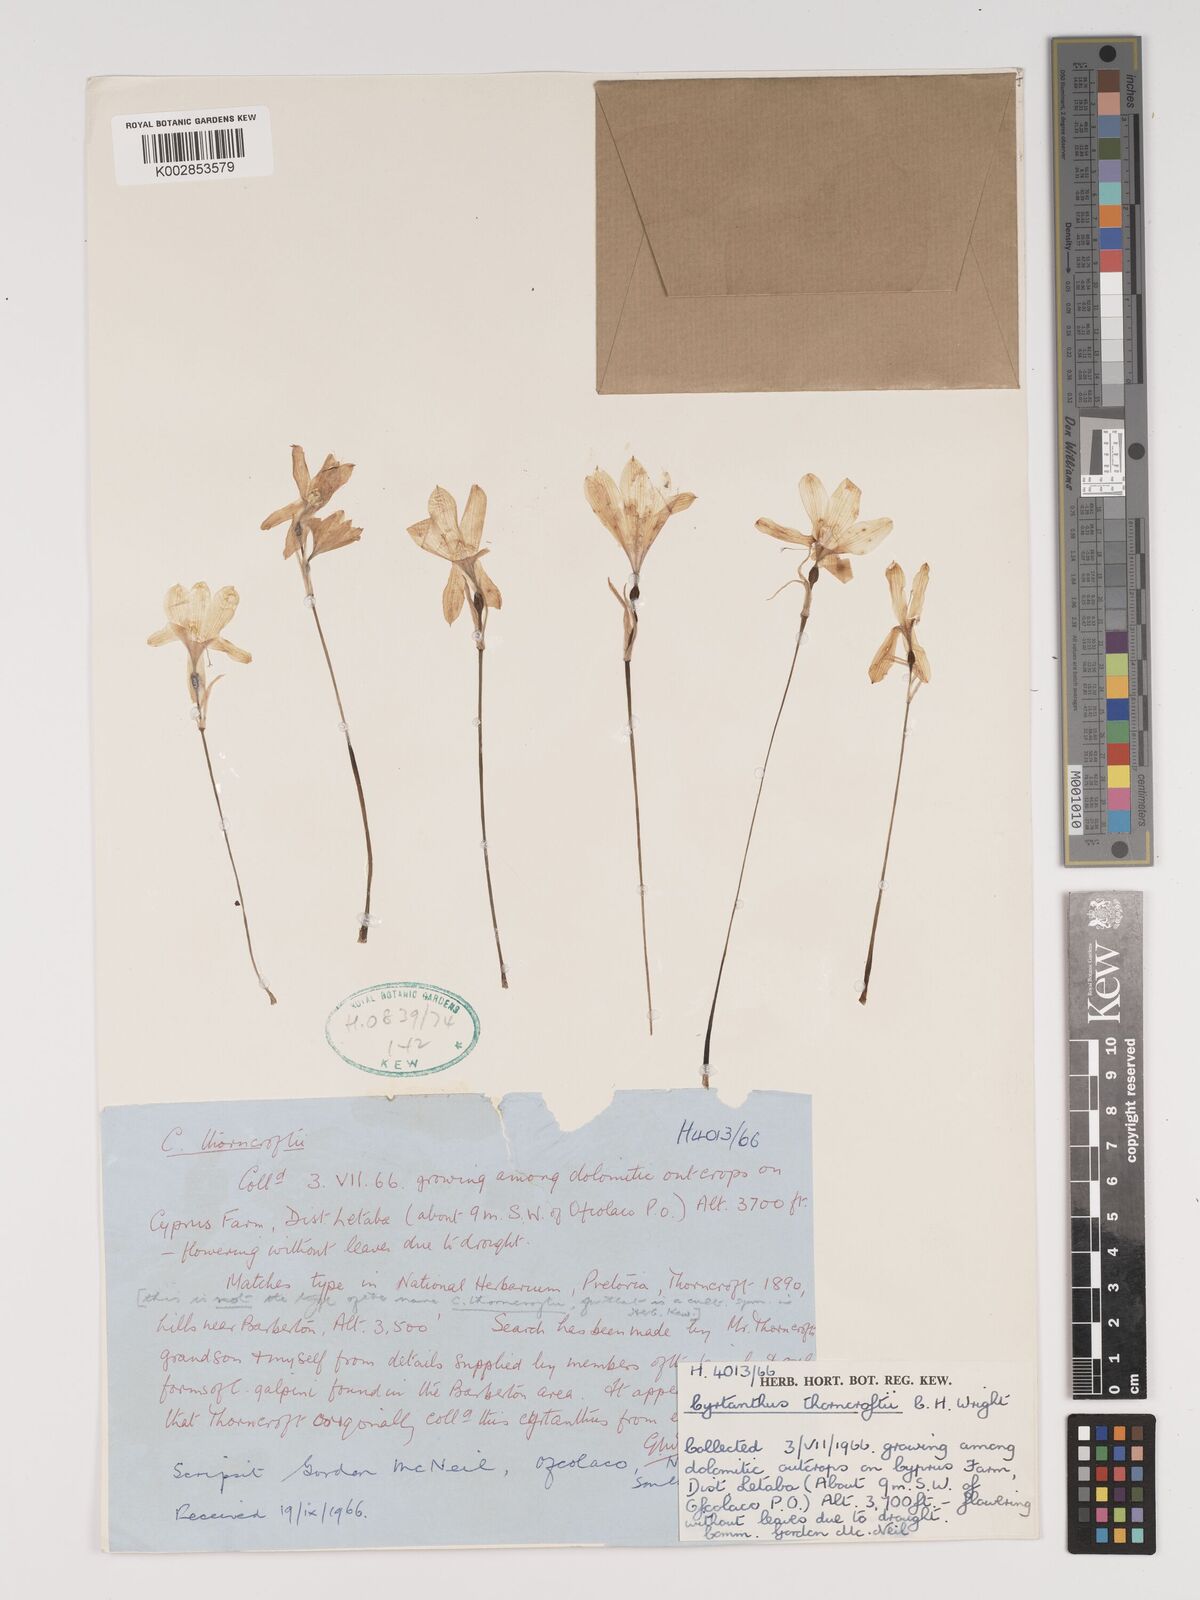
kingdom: Plantae
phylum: Tracheophyta
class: Liliopsida
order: Asparagales
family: Amaryllidaceae
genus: Cyrtanthus
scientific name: Cyrtanthus thorncroftii
